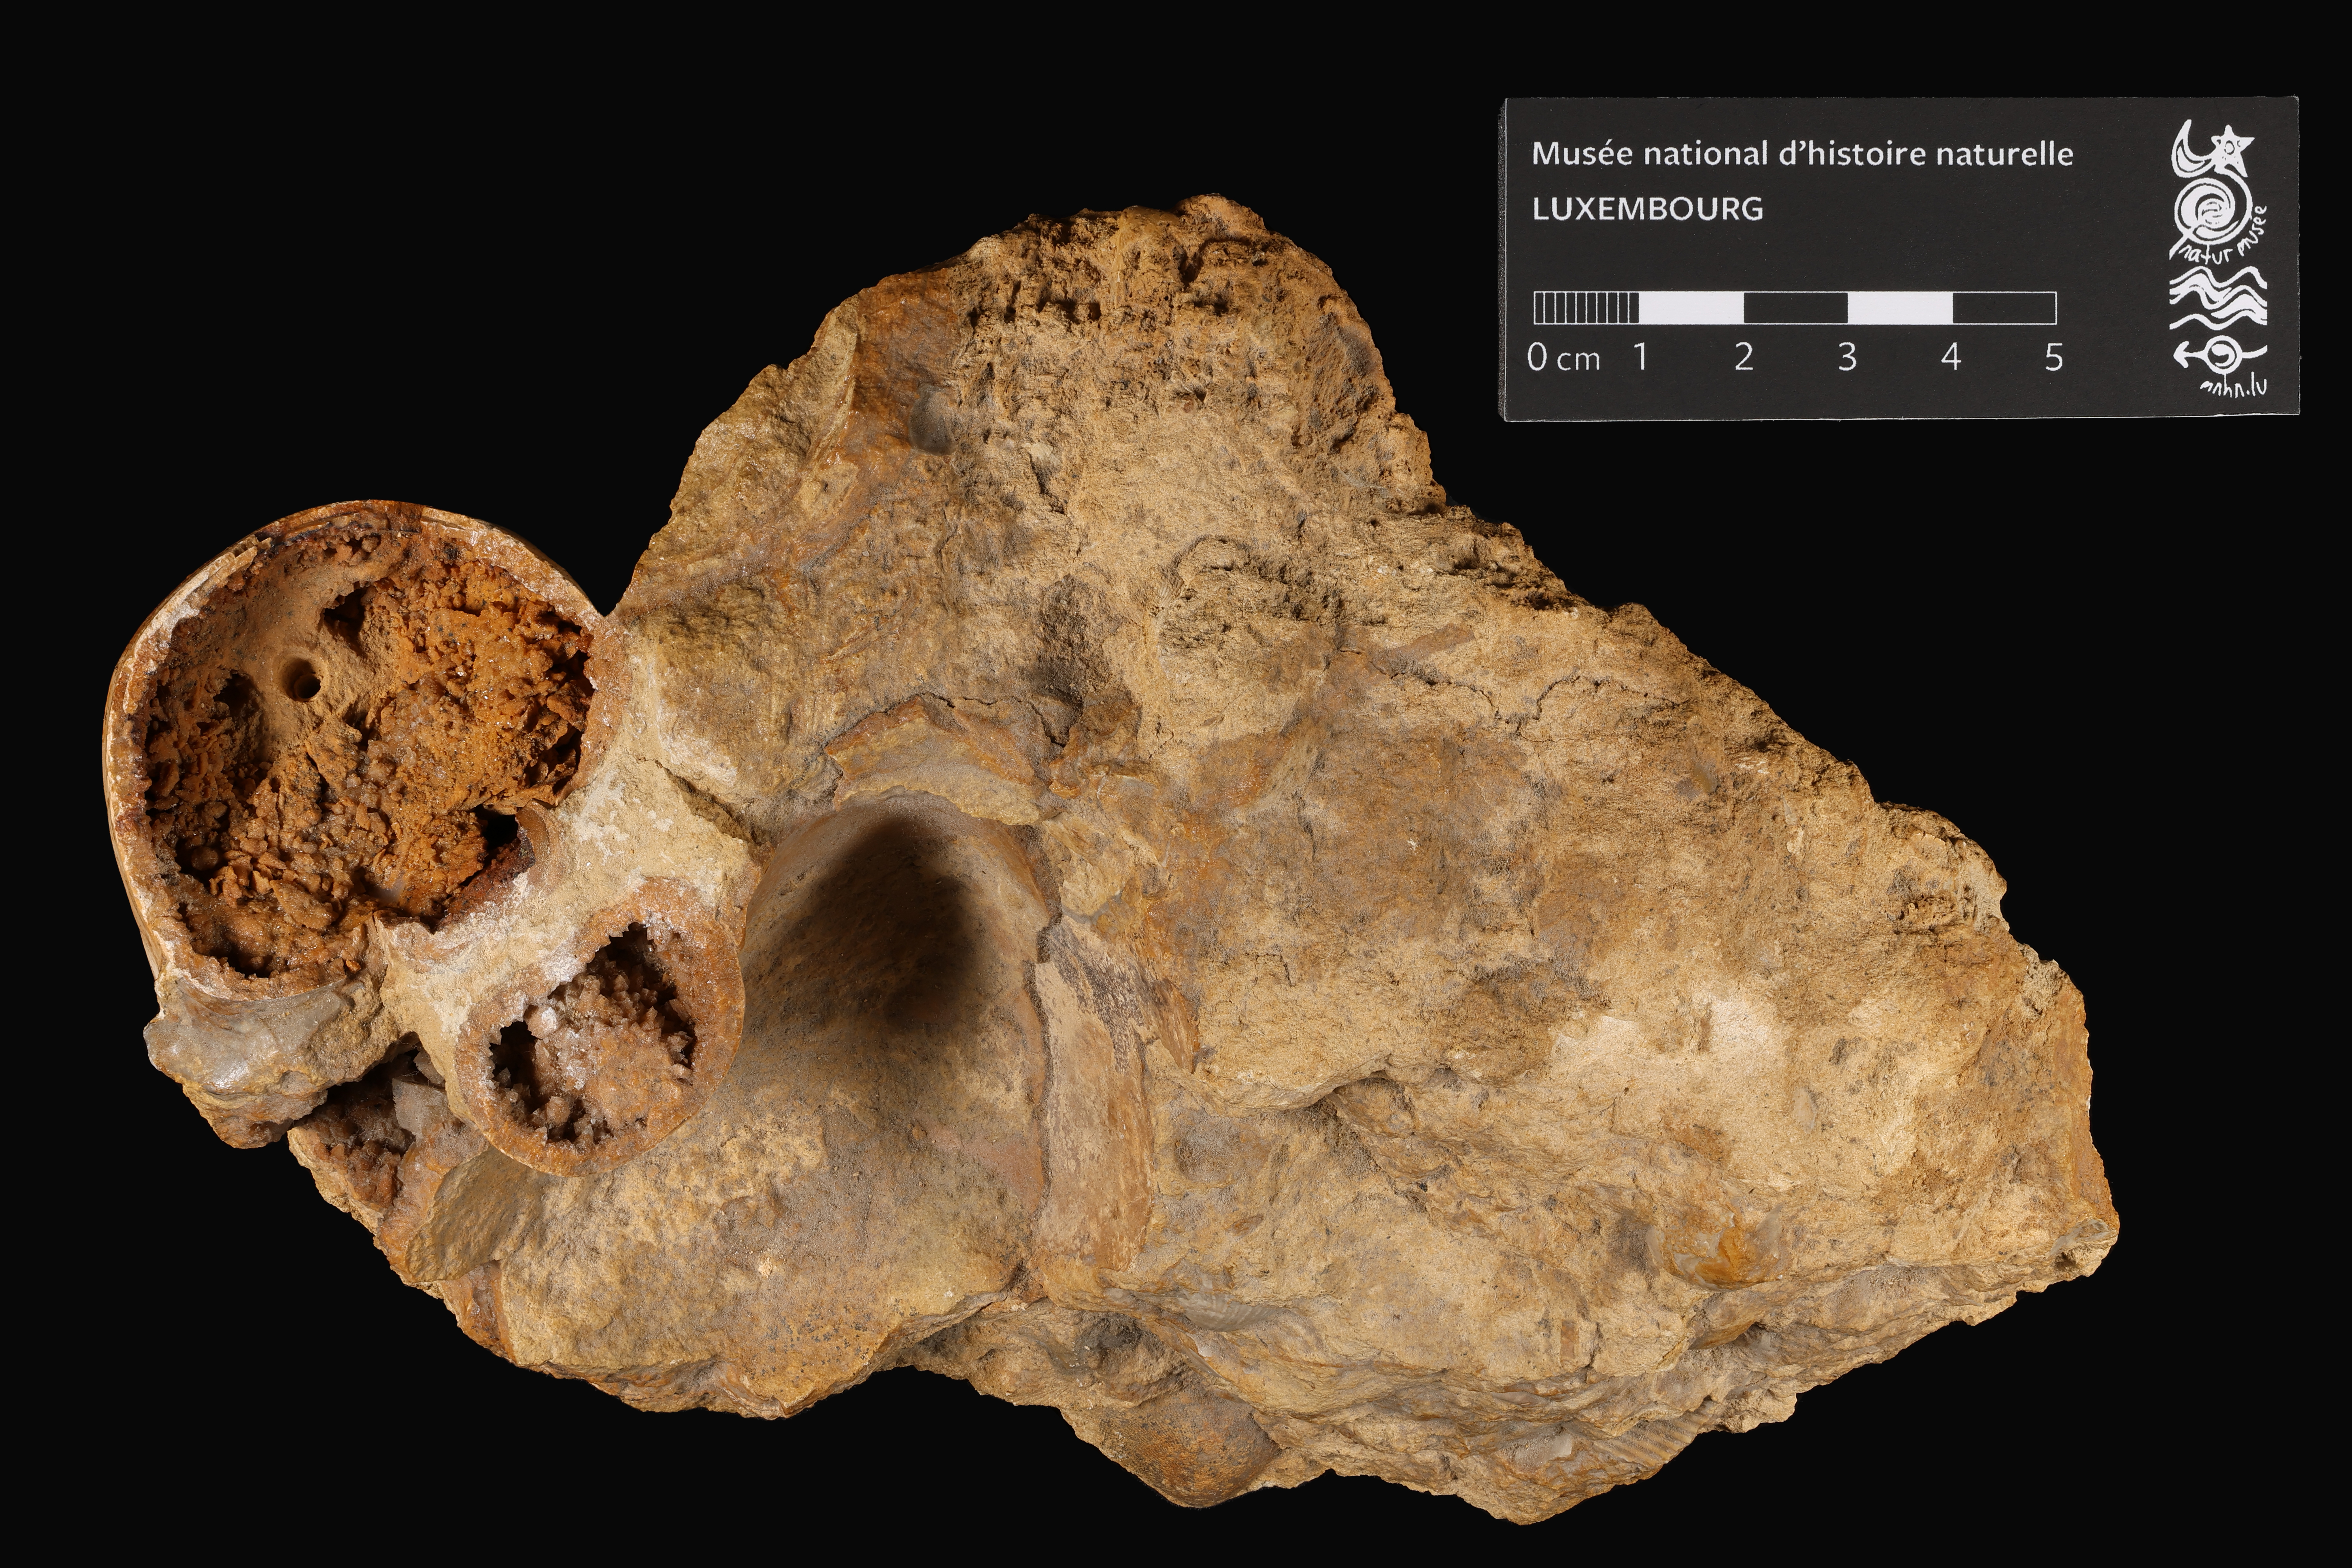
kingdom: Animalia
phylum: Mollusca
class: Cephalopoda
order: Nautilida
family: Nautilidae
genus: Cenoceras
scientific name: Cenoceras
